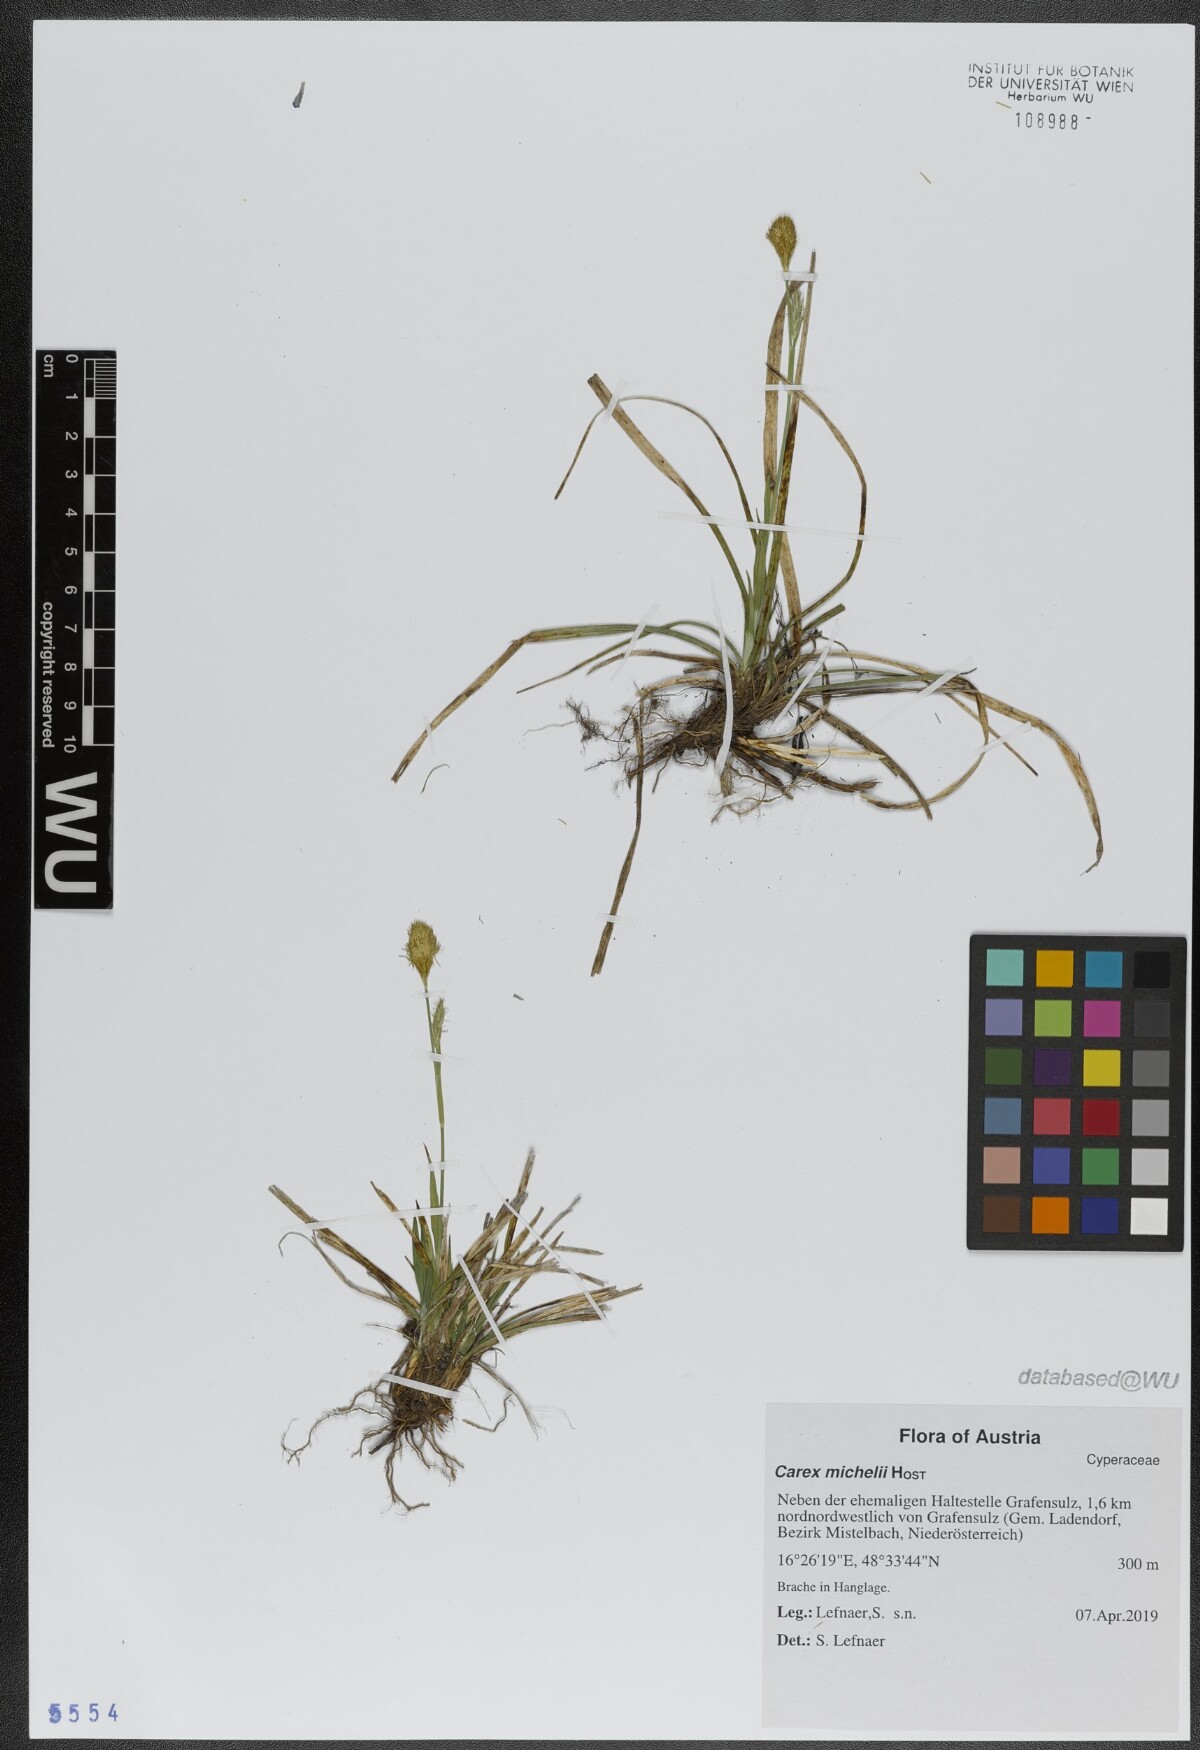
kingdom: Plantae
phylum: Tracheophyta
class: Liliopsida
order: Poales
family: Cyperaceae
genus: Carex
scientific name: Carex michelii
